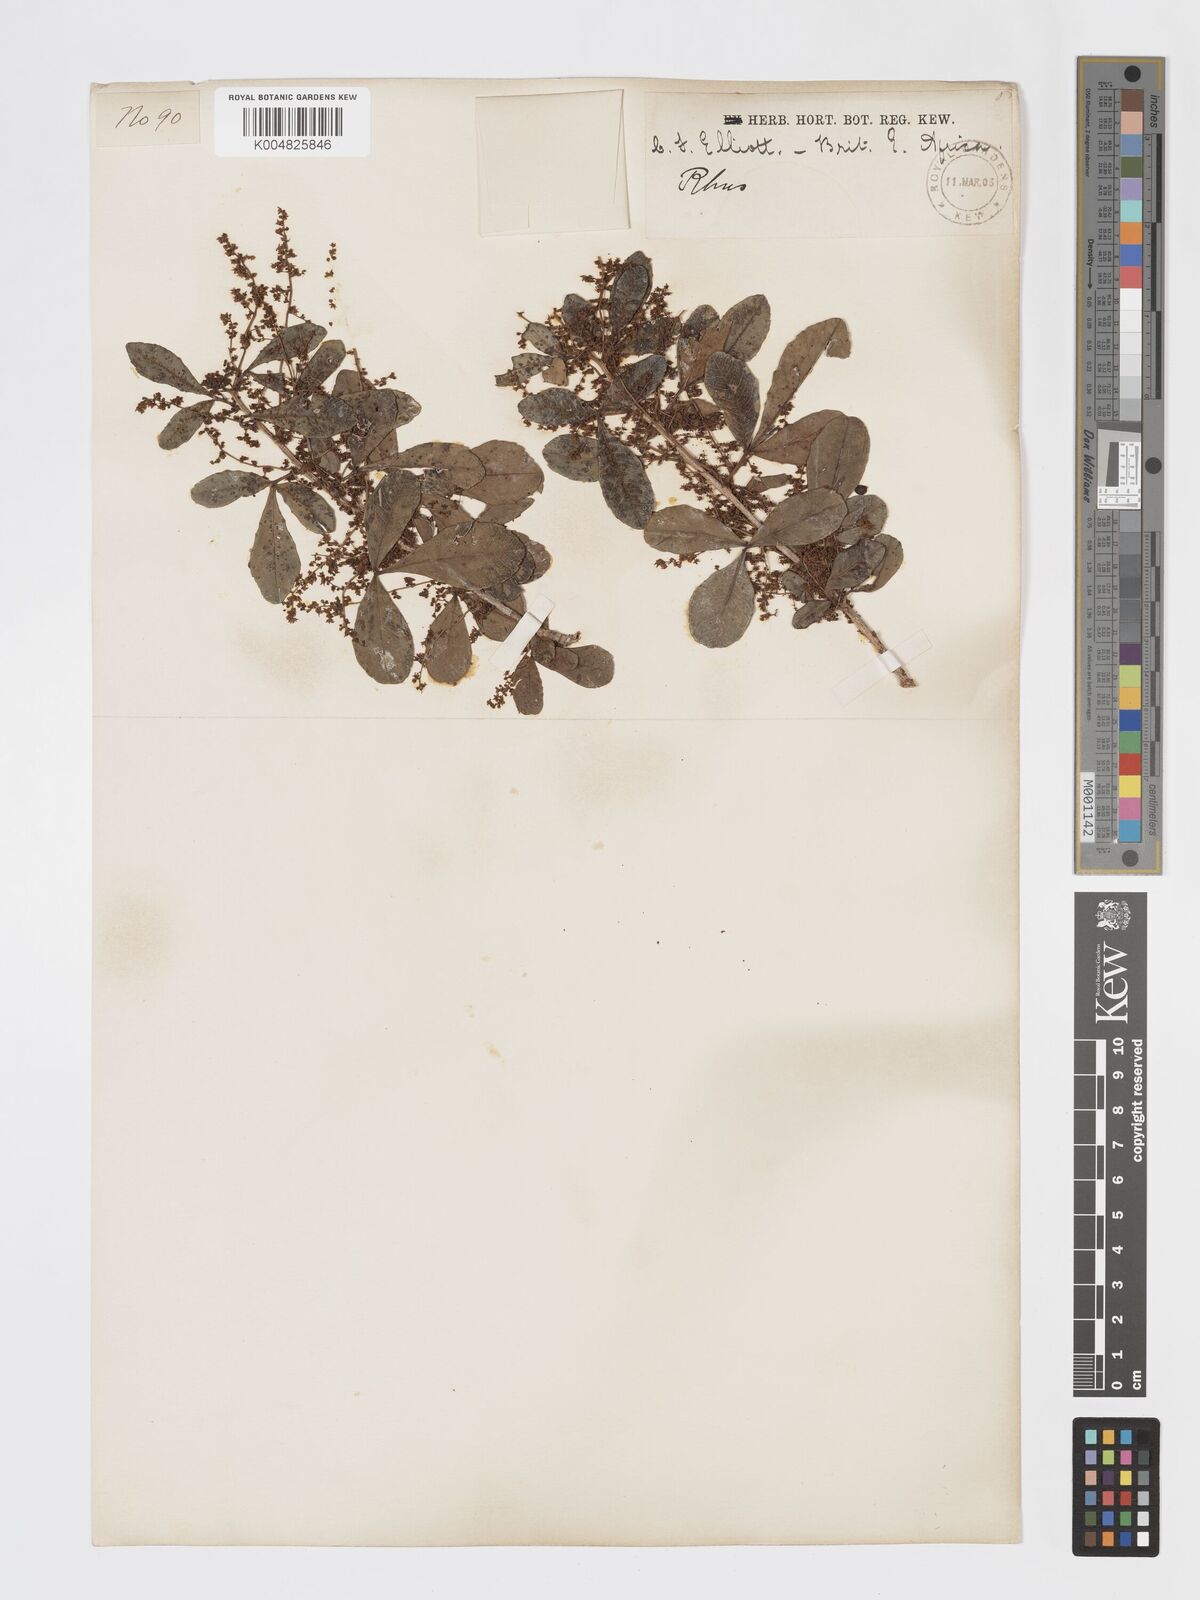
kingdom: Plantae
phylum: Tracheophyta
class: Magnoliopsida
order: Sapindales
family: Anacardiaceae
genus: Searsia
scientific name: Searsia natalensis
